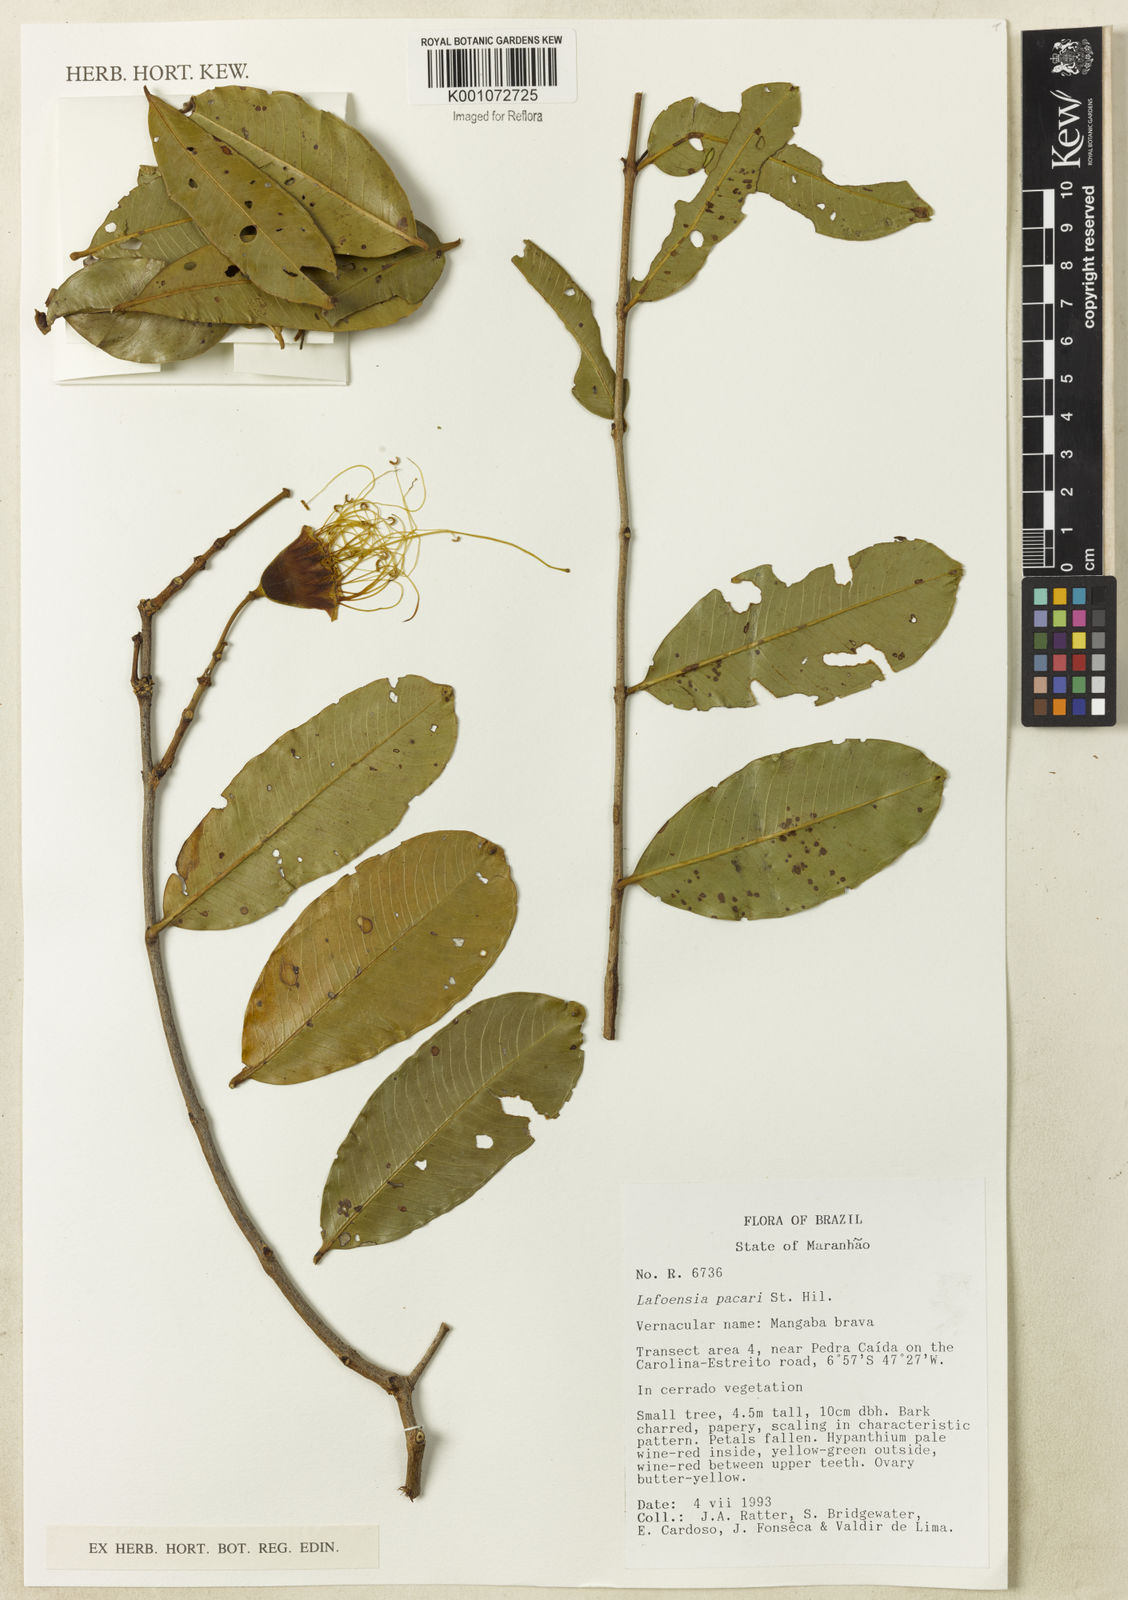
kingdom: Plantae
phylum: Tracheophyta
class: Magnoliopsida
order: Myrtales
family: Lythraceae
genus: Lafoensia
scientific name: Lafoensia pacari
